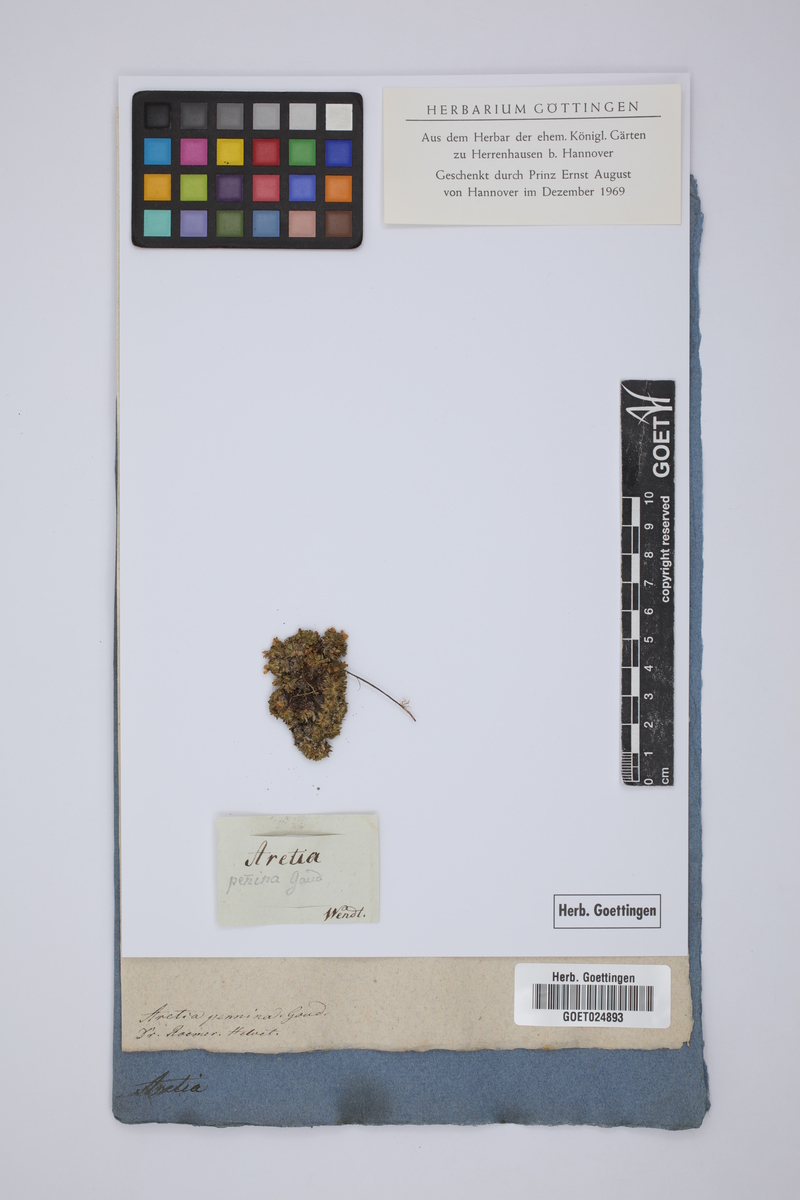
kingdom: Plantae
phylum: Tracheophyta
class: Magnoliopsida
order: Ericales
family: Primulaceae
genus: Androsace
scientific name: Androsace alpina
